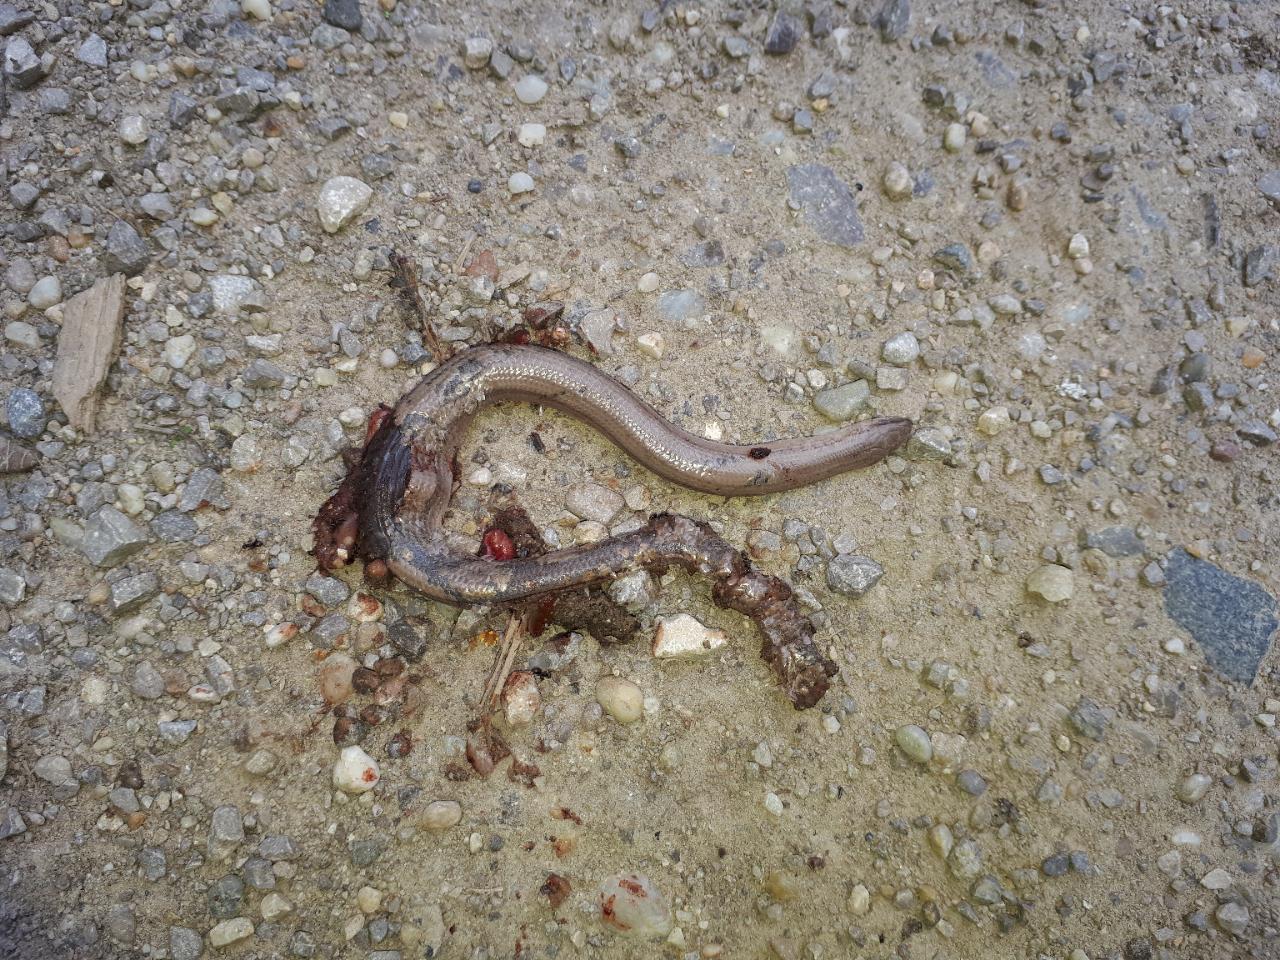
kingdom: Animalia
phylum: Chordata
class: Squamata
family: Anguidae
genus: Anguis
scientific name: Anguis fragilis
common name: Slow worm
